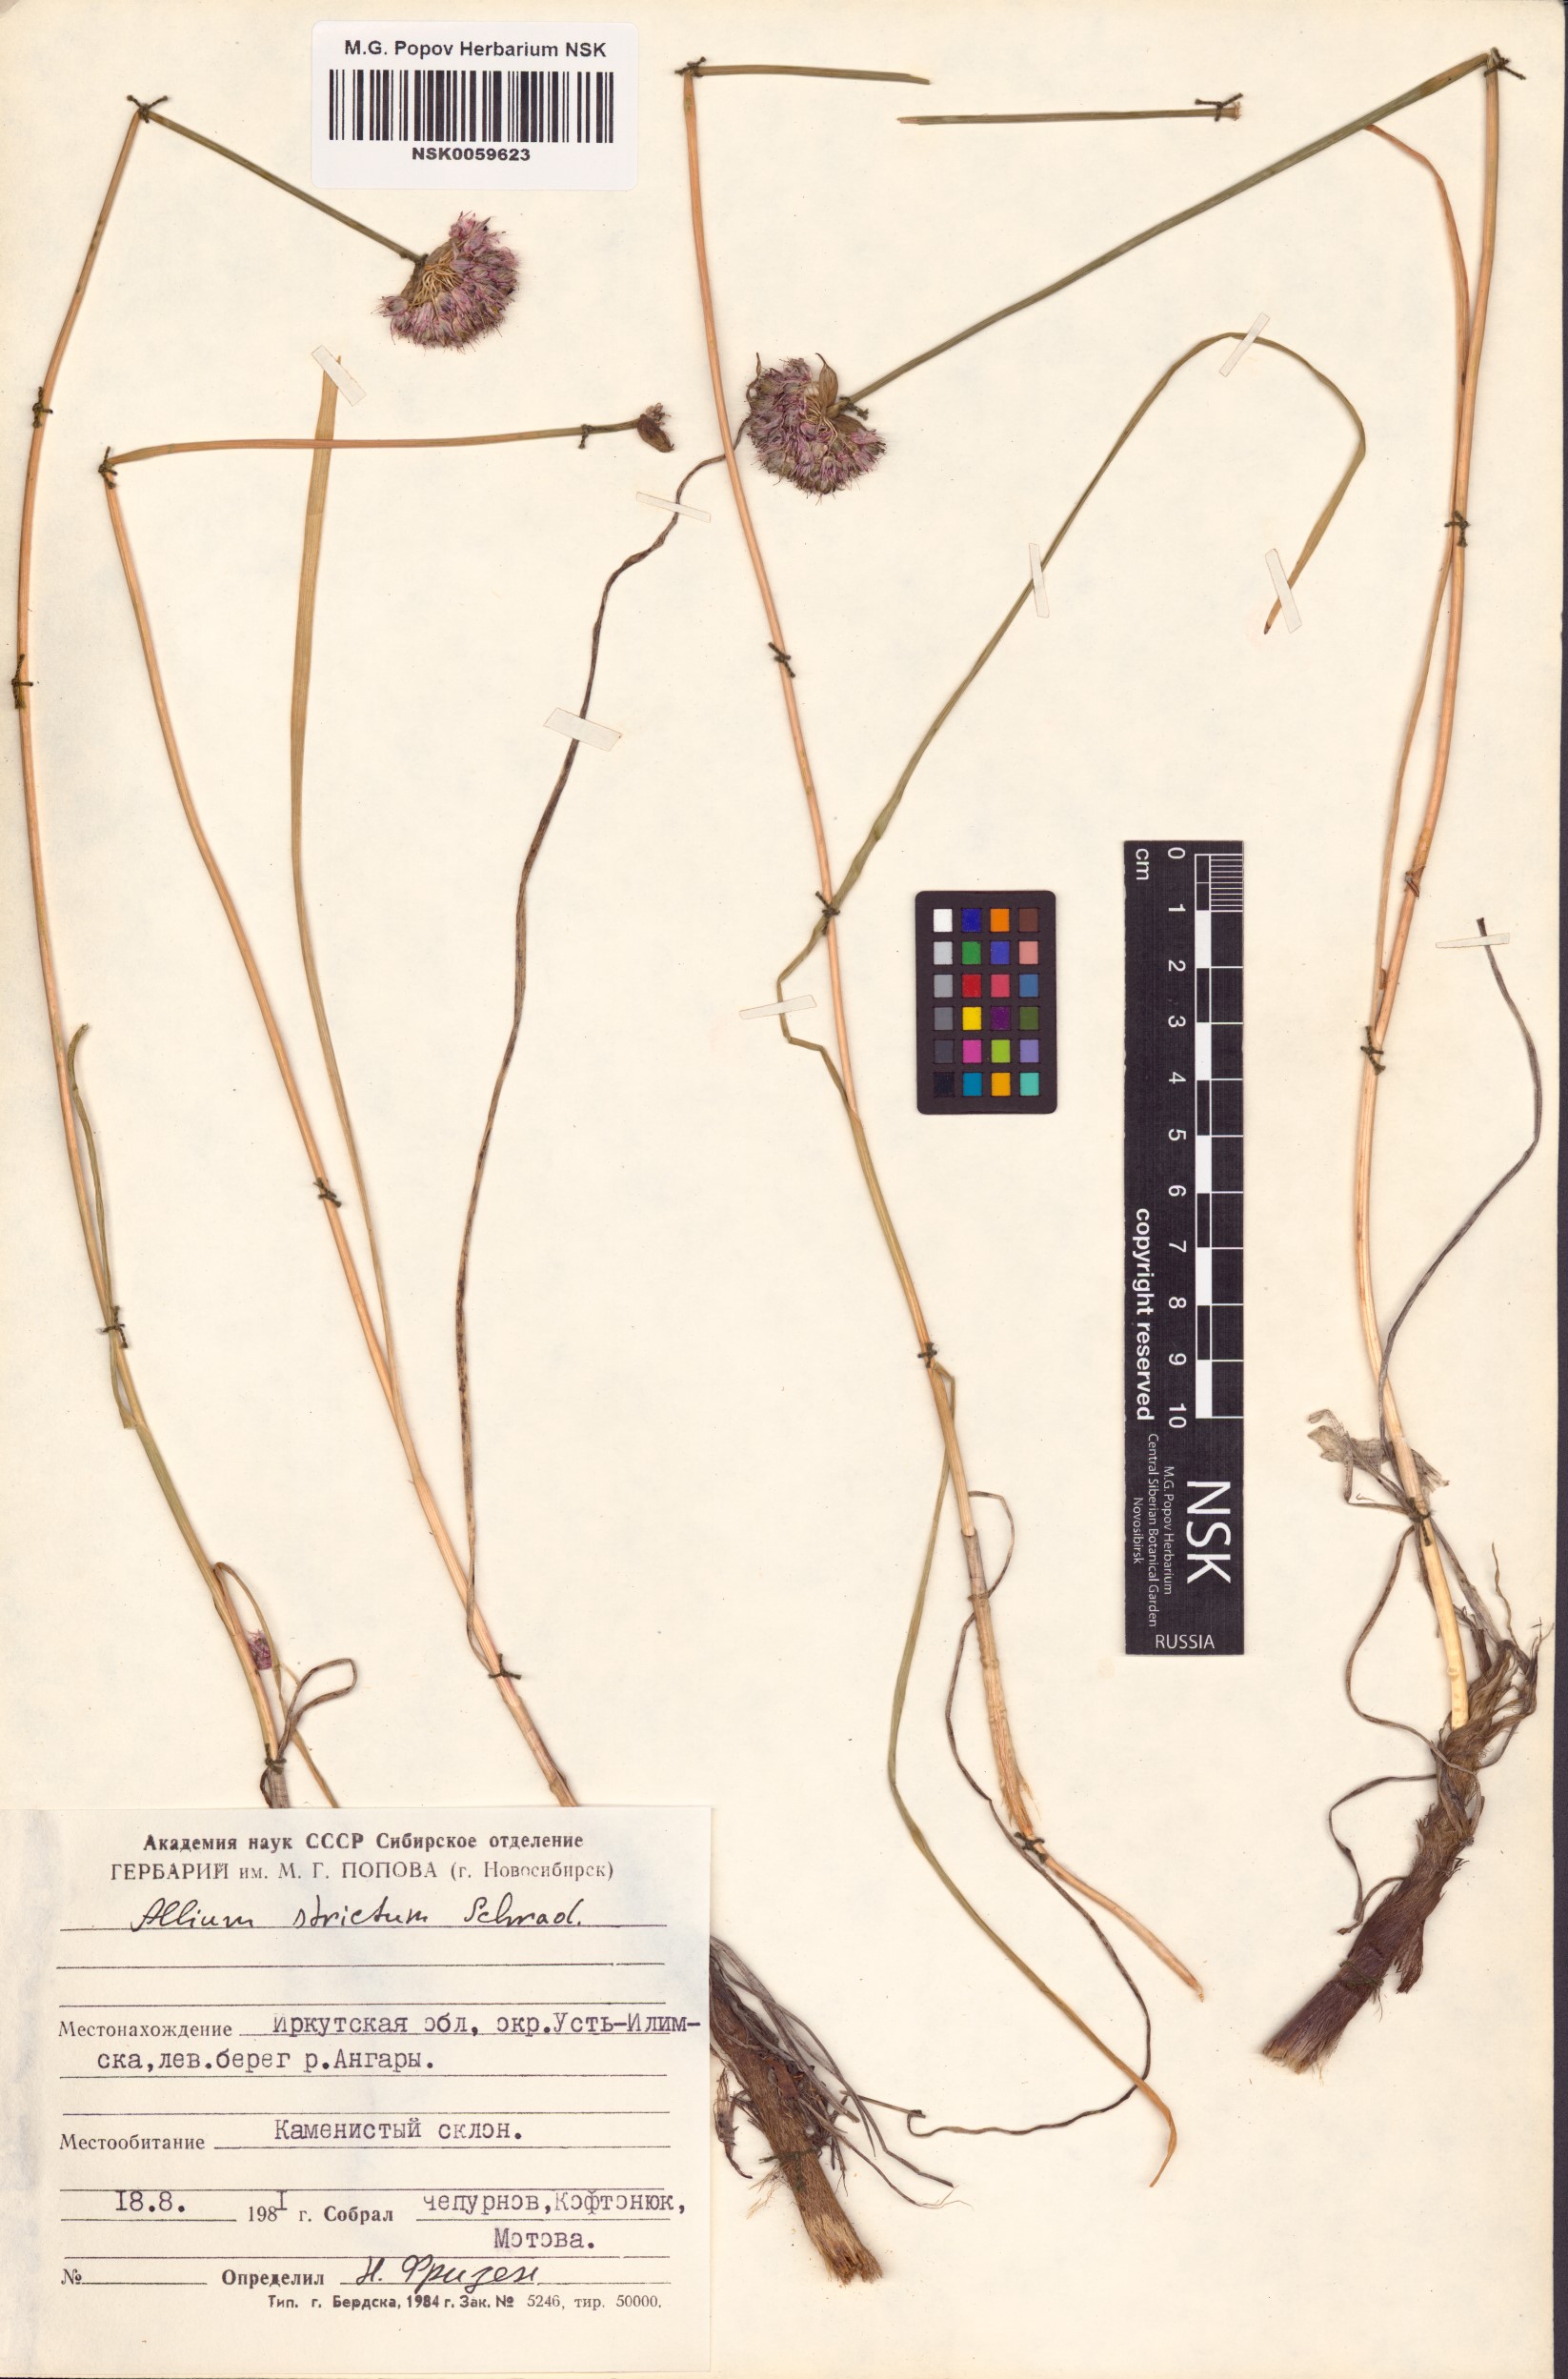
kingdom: Plantae
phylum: Tracheophyta
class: Liliopsida
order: Asparagales
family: Amaryllidaceae
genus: Allium
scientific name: Allium strictum
